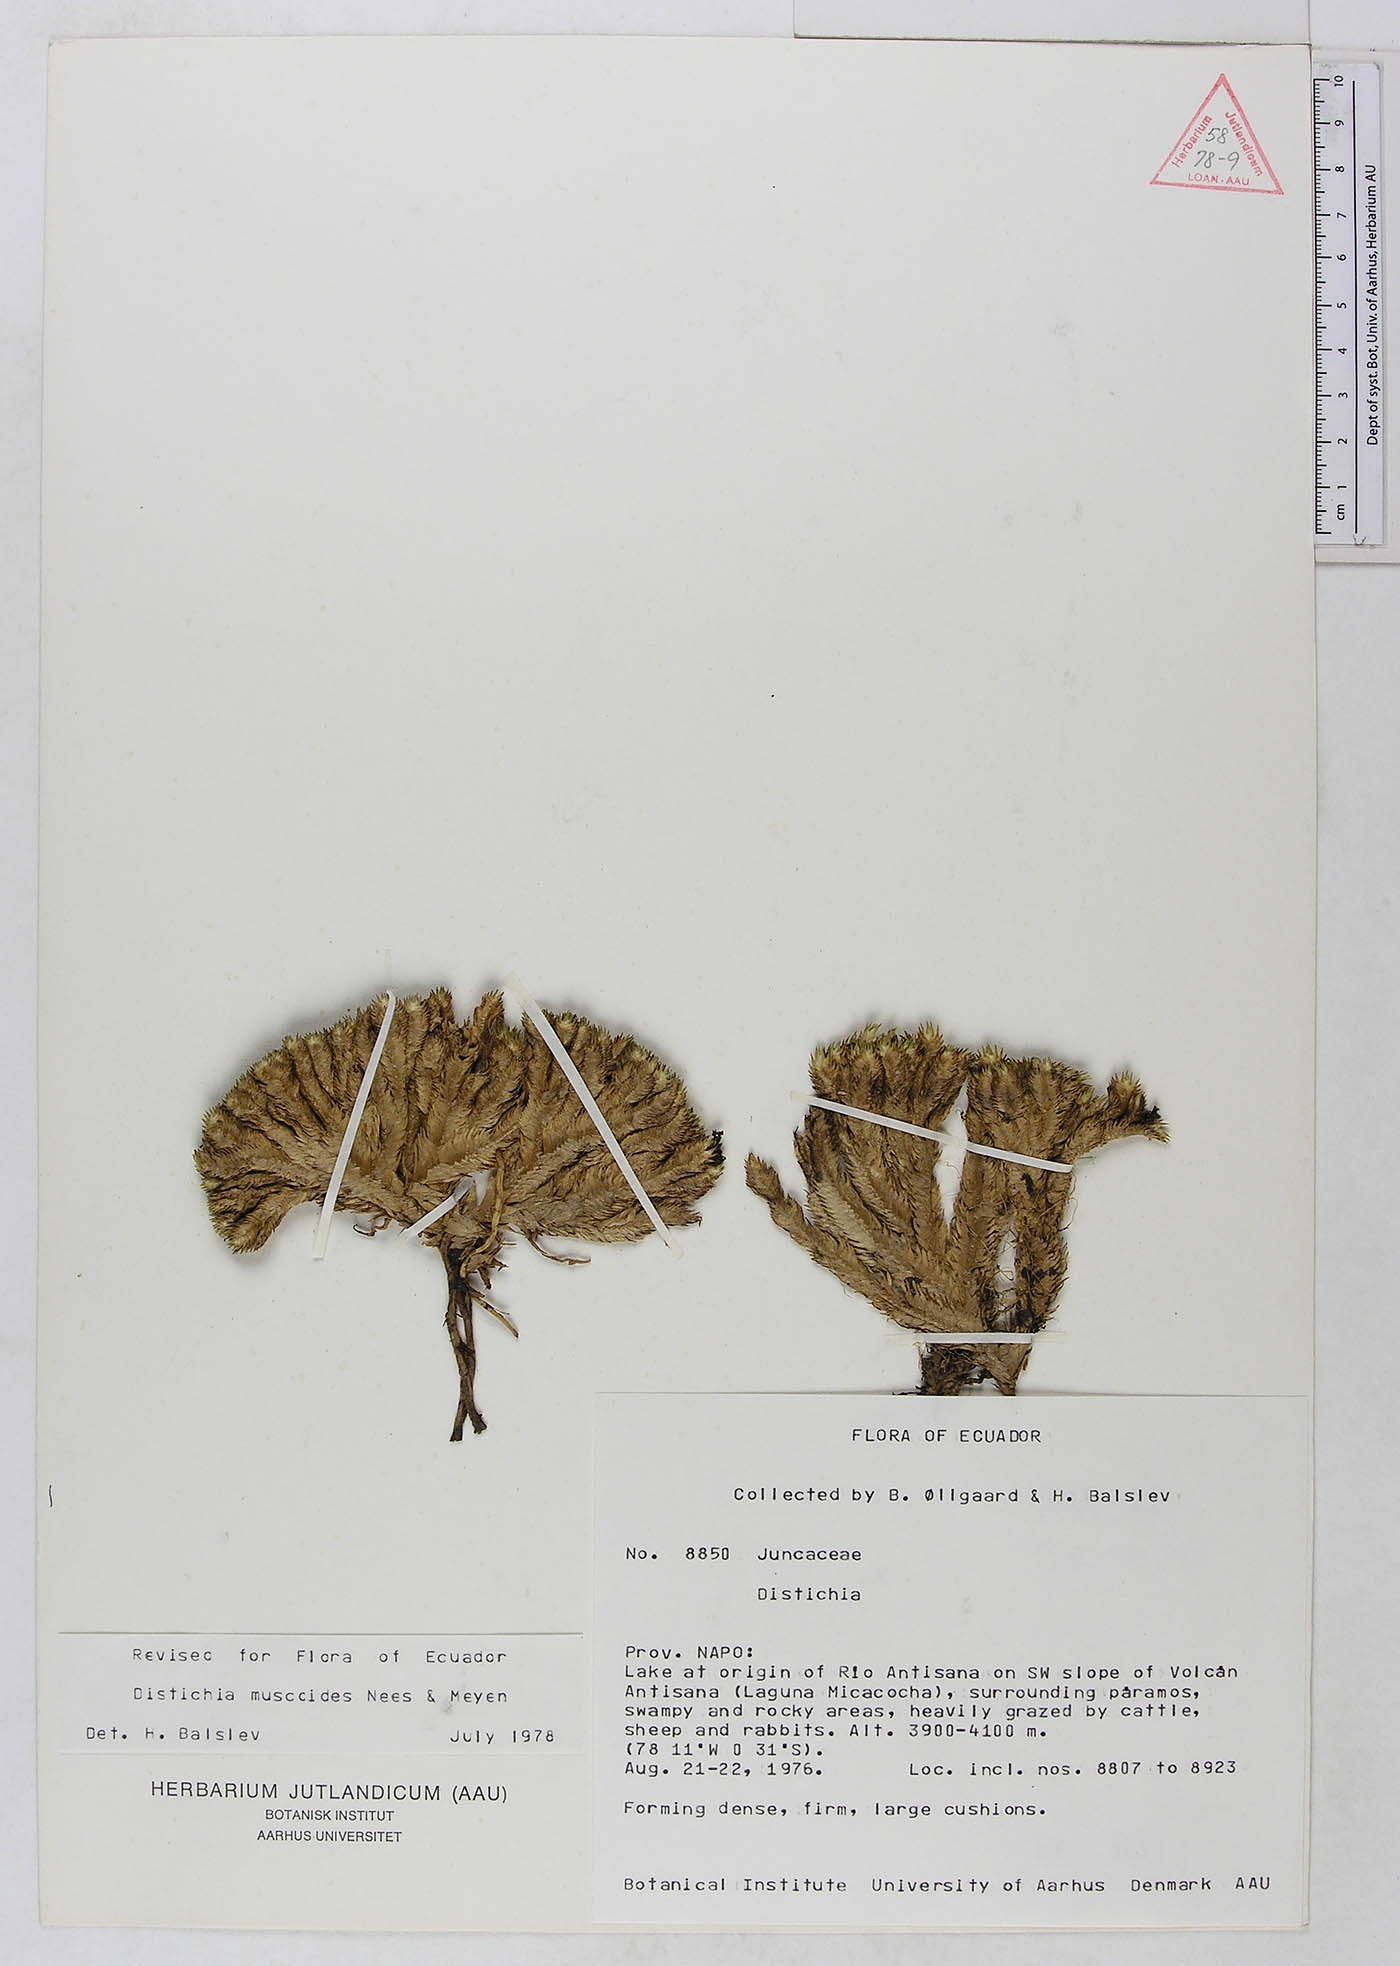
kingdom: Plantae
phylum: Tracheophyta
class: Liliopsida
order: Poales
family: Juncaceae
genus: Distichia
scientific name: Distichia muscoides
